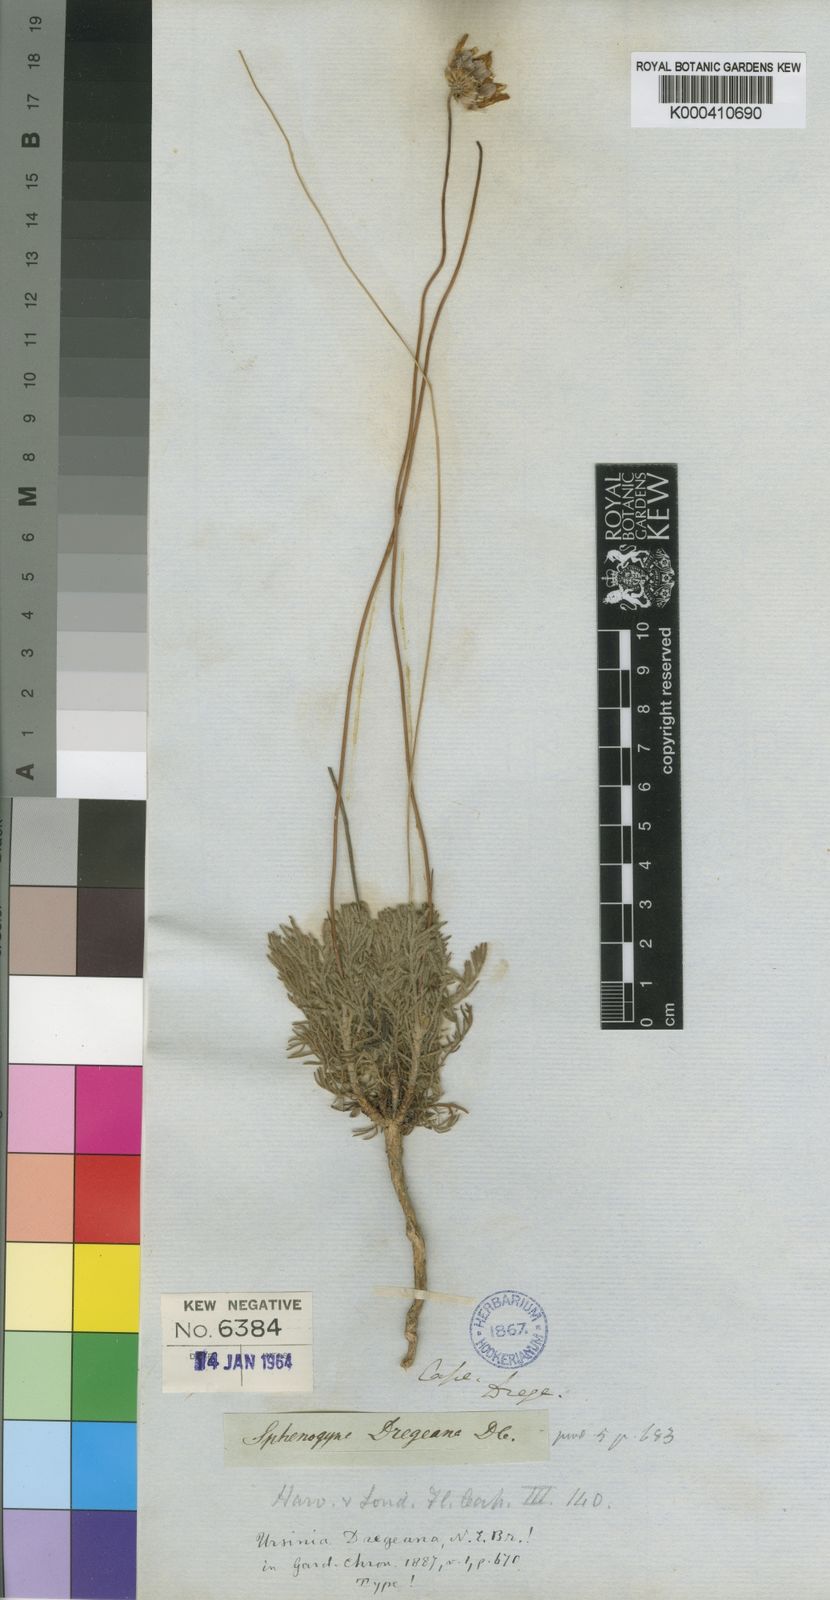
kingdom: Plantae
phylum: Tracheophyta
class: Magnoliopsida
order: Asterales
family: Asteraceae
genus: Ursinia
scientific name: Ursinia oreogena
